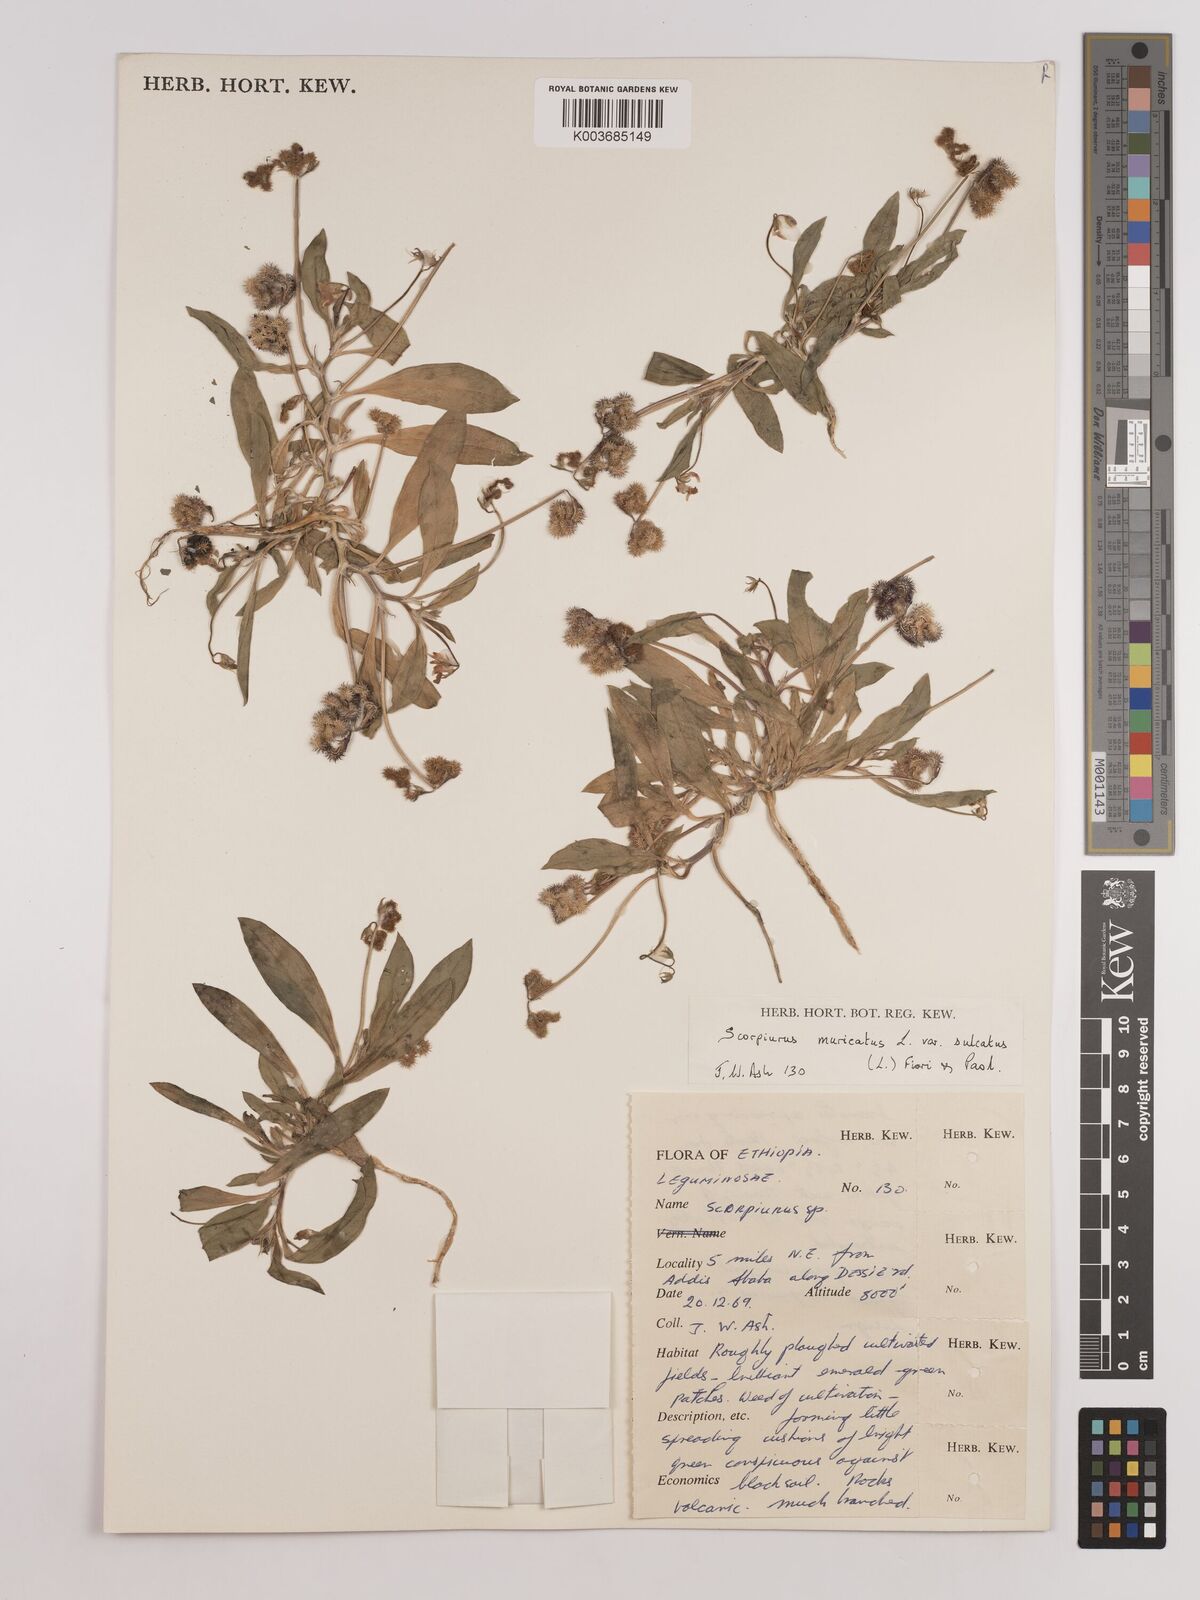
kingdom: Plantae
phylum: Tracheophyta
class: Magnoliopsida
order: Fabales
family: Fabaceae
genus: Scorpiurus
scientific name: Scorpiurus muricatus
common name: Caterpillar-plant
